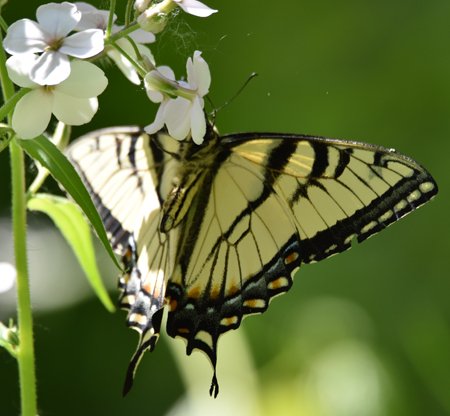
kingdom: Animalia
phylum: Arthropoda
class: Insecta
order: Lepidoptera
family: Papilionidae
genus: Pterourus
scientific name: Pterourus glaucus
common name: Eastern Tiger Swallowtail
